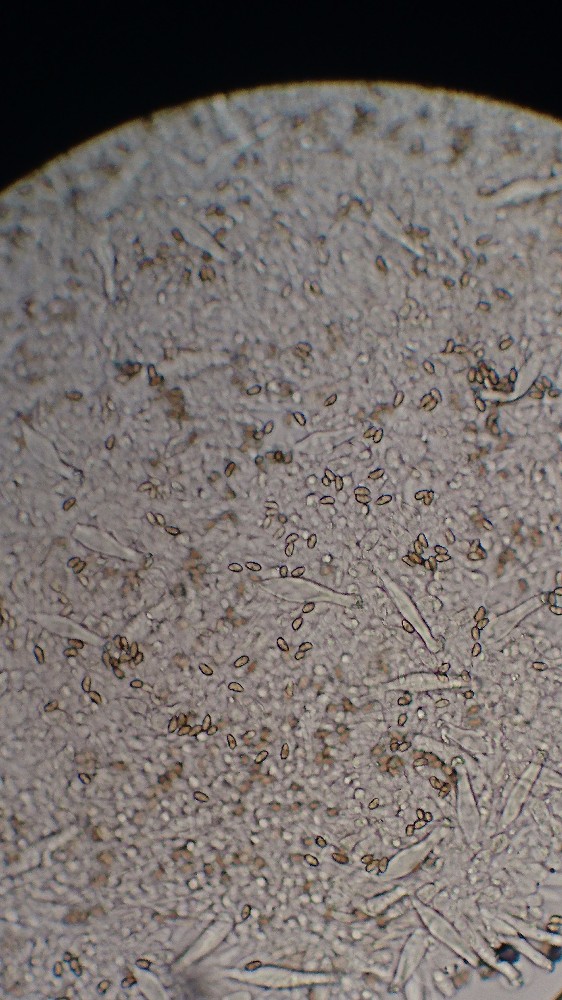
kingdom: Fungi
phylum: Basidiomycota
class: Agaricomycetes
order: Agaricales
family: Inocybaceae
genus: Inocybe
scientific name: Inocybe
